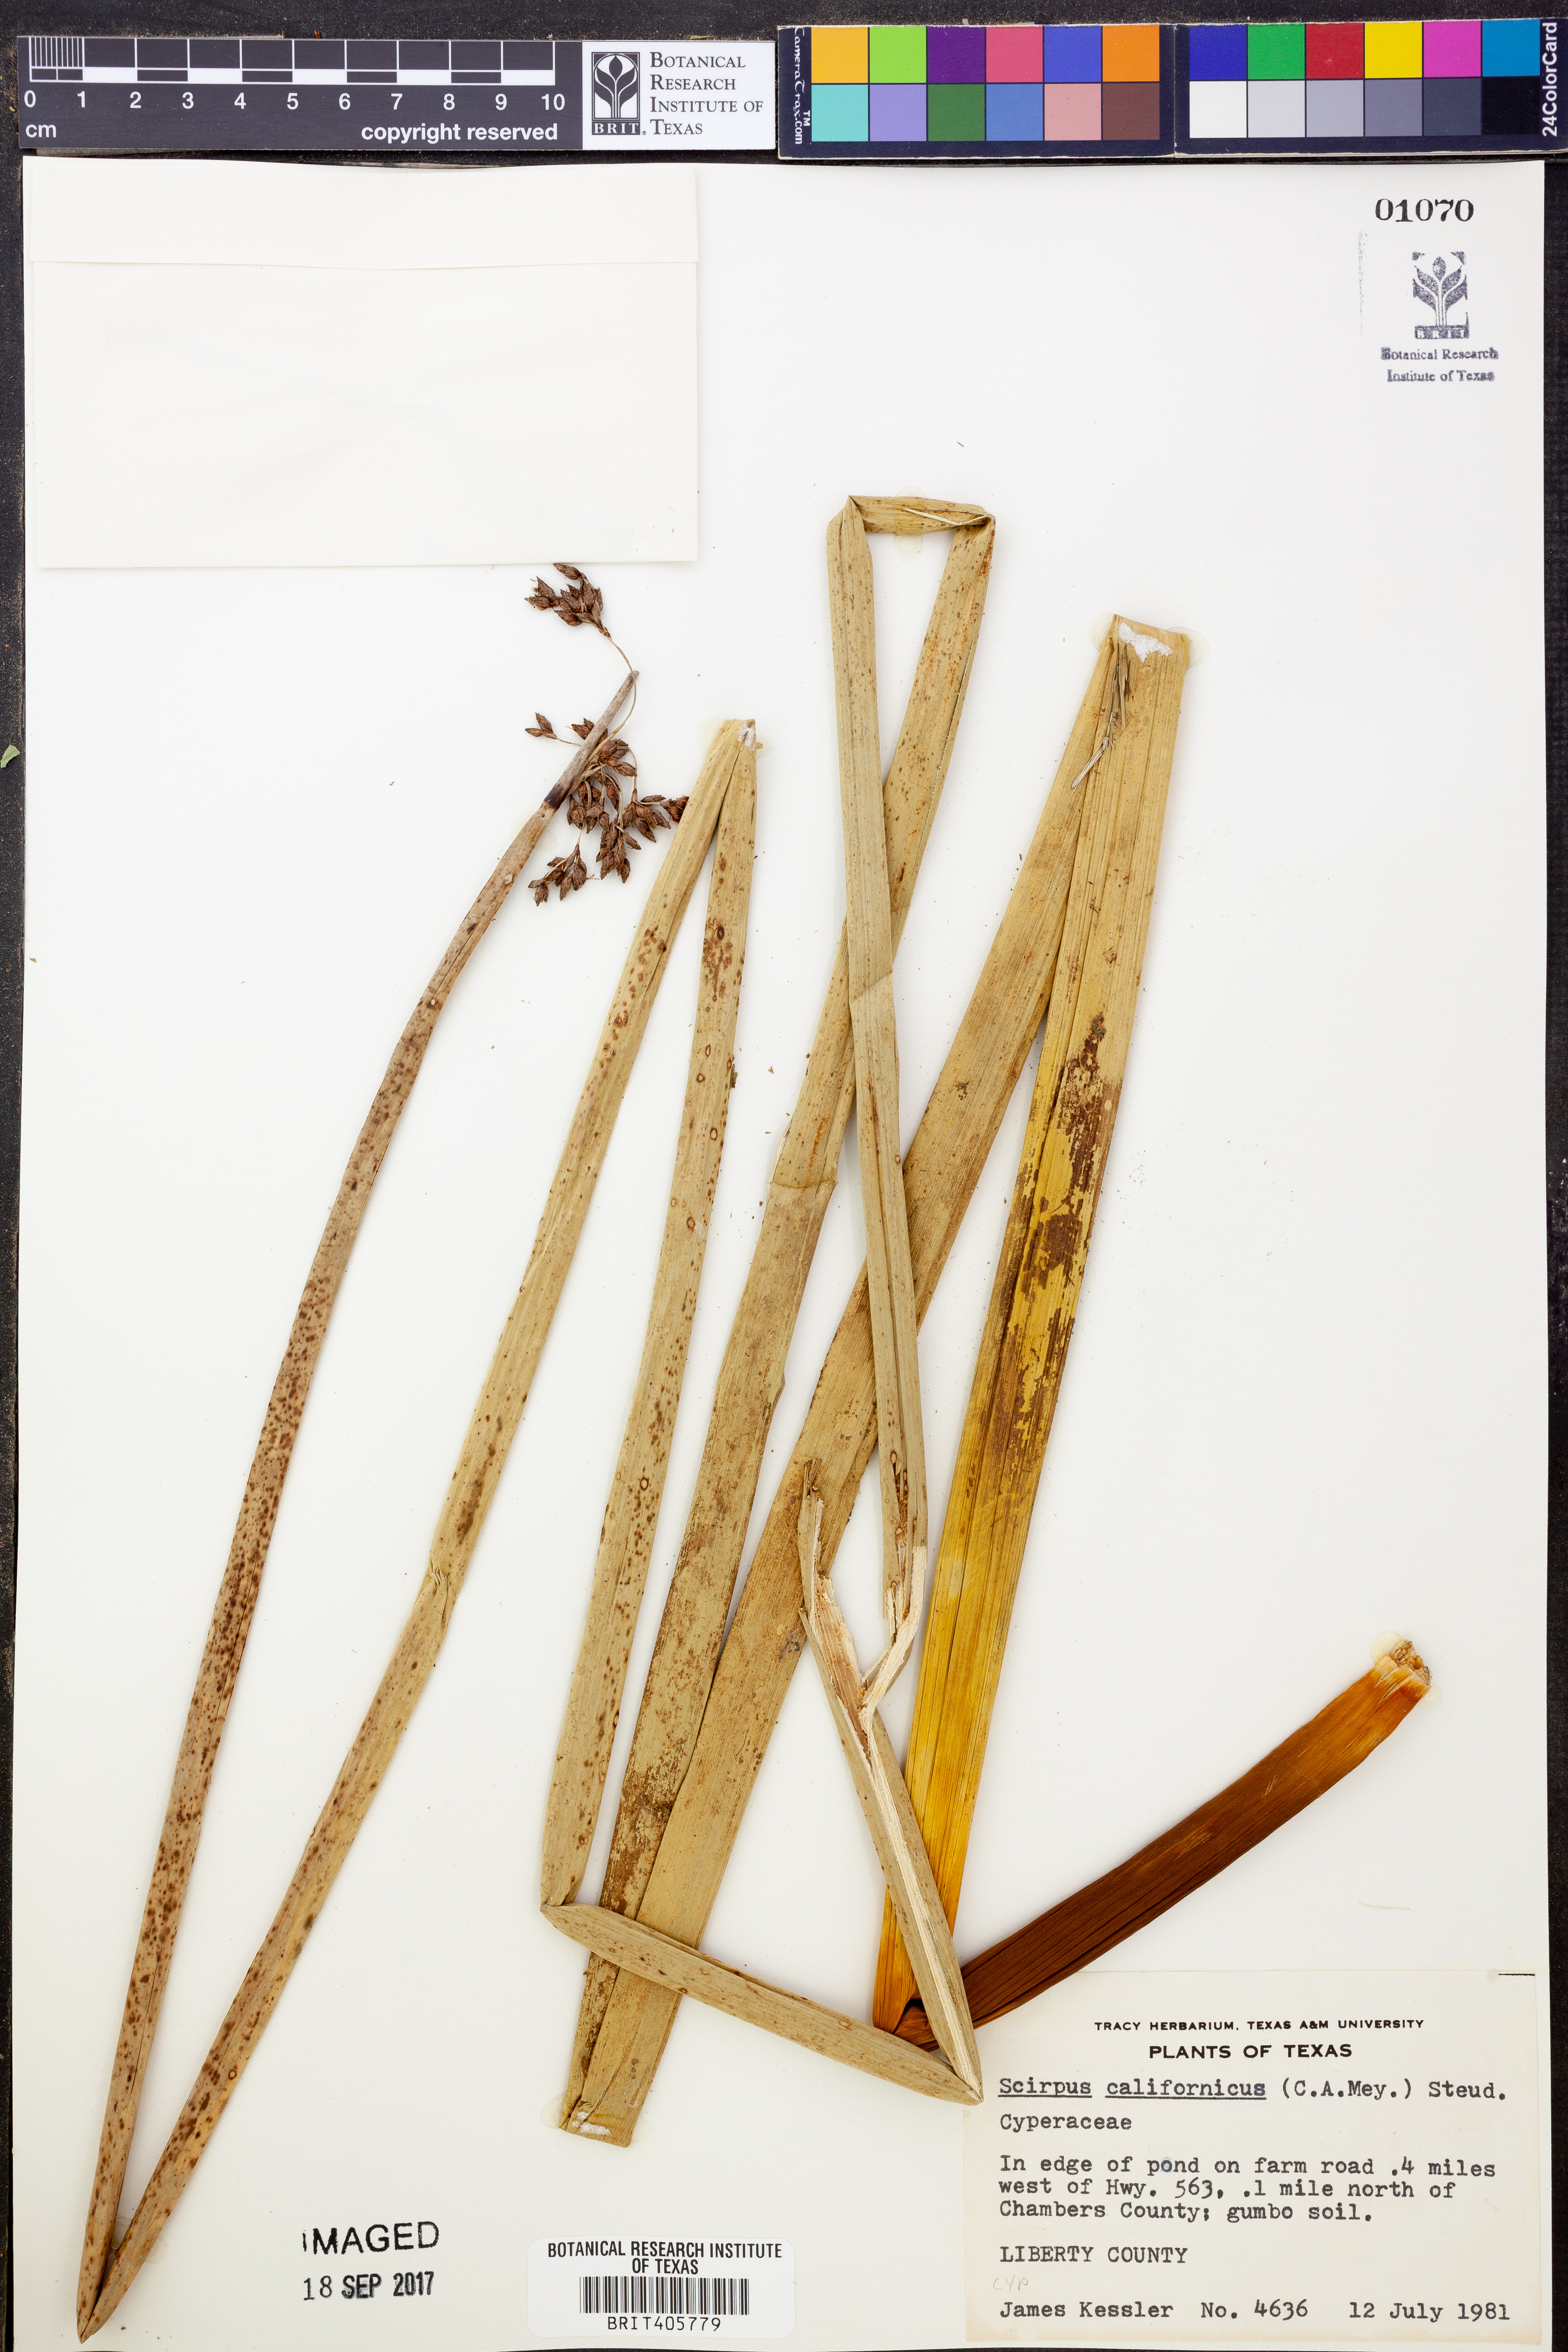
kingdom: Plantae
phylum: Tracheophyta
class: Liliopsida
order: Poales
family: Cyperaceae
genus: Schoenoplectus
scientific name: Schoenoplectus californicus
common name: California bulrush
